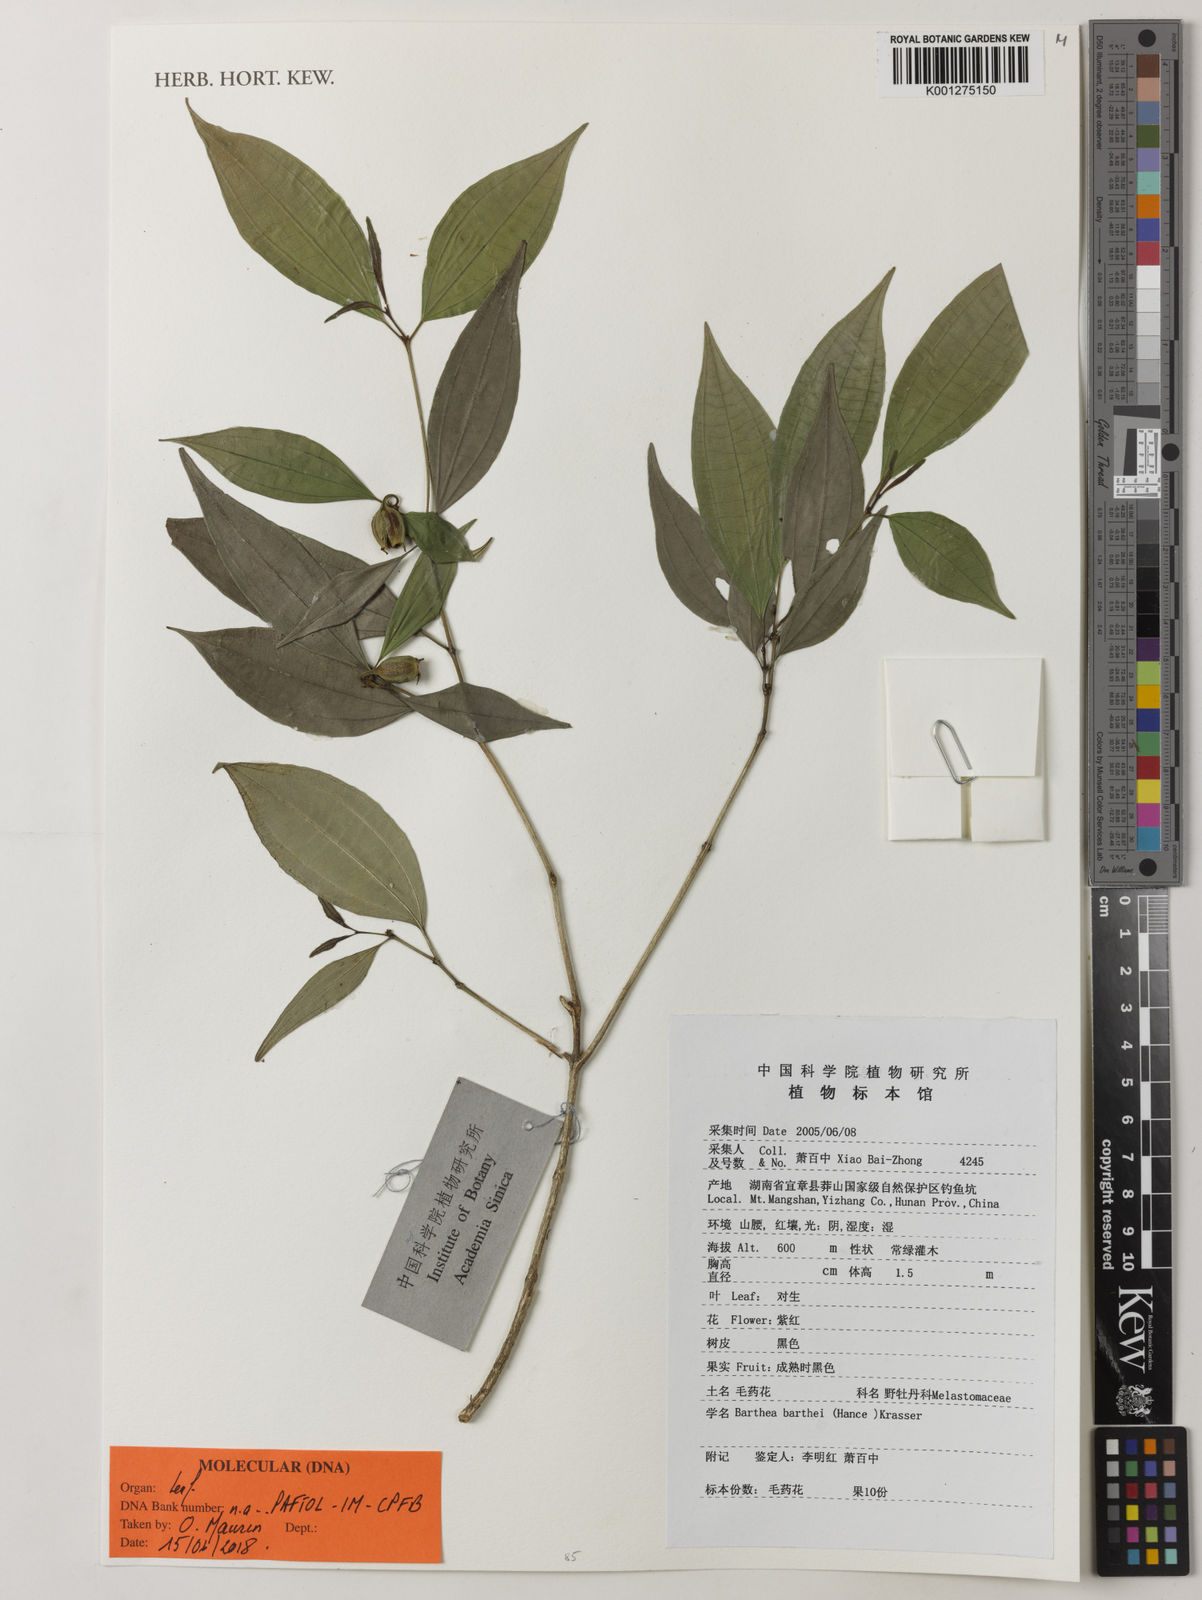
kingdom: Plantae
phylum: Tracheophyta
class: Magnoliopsida
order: Myrtales
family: Melastomataceae
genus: Barthea
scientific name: Barthea barthei
